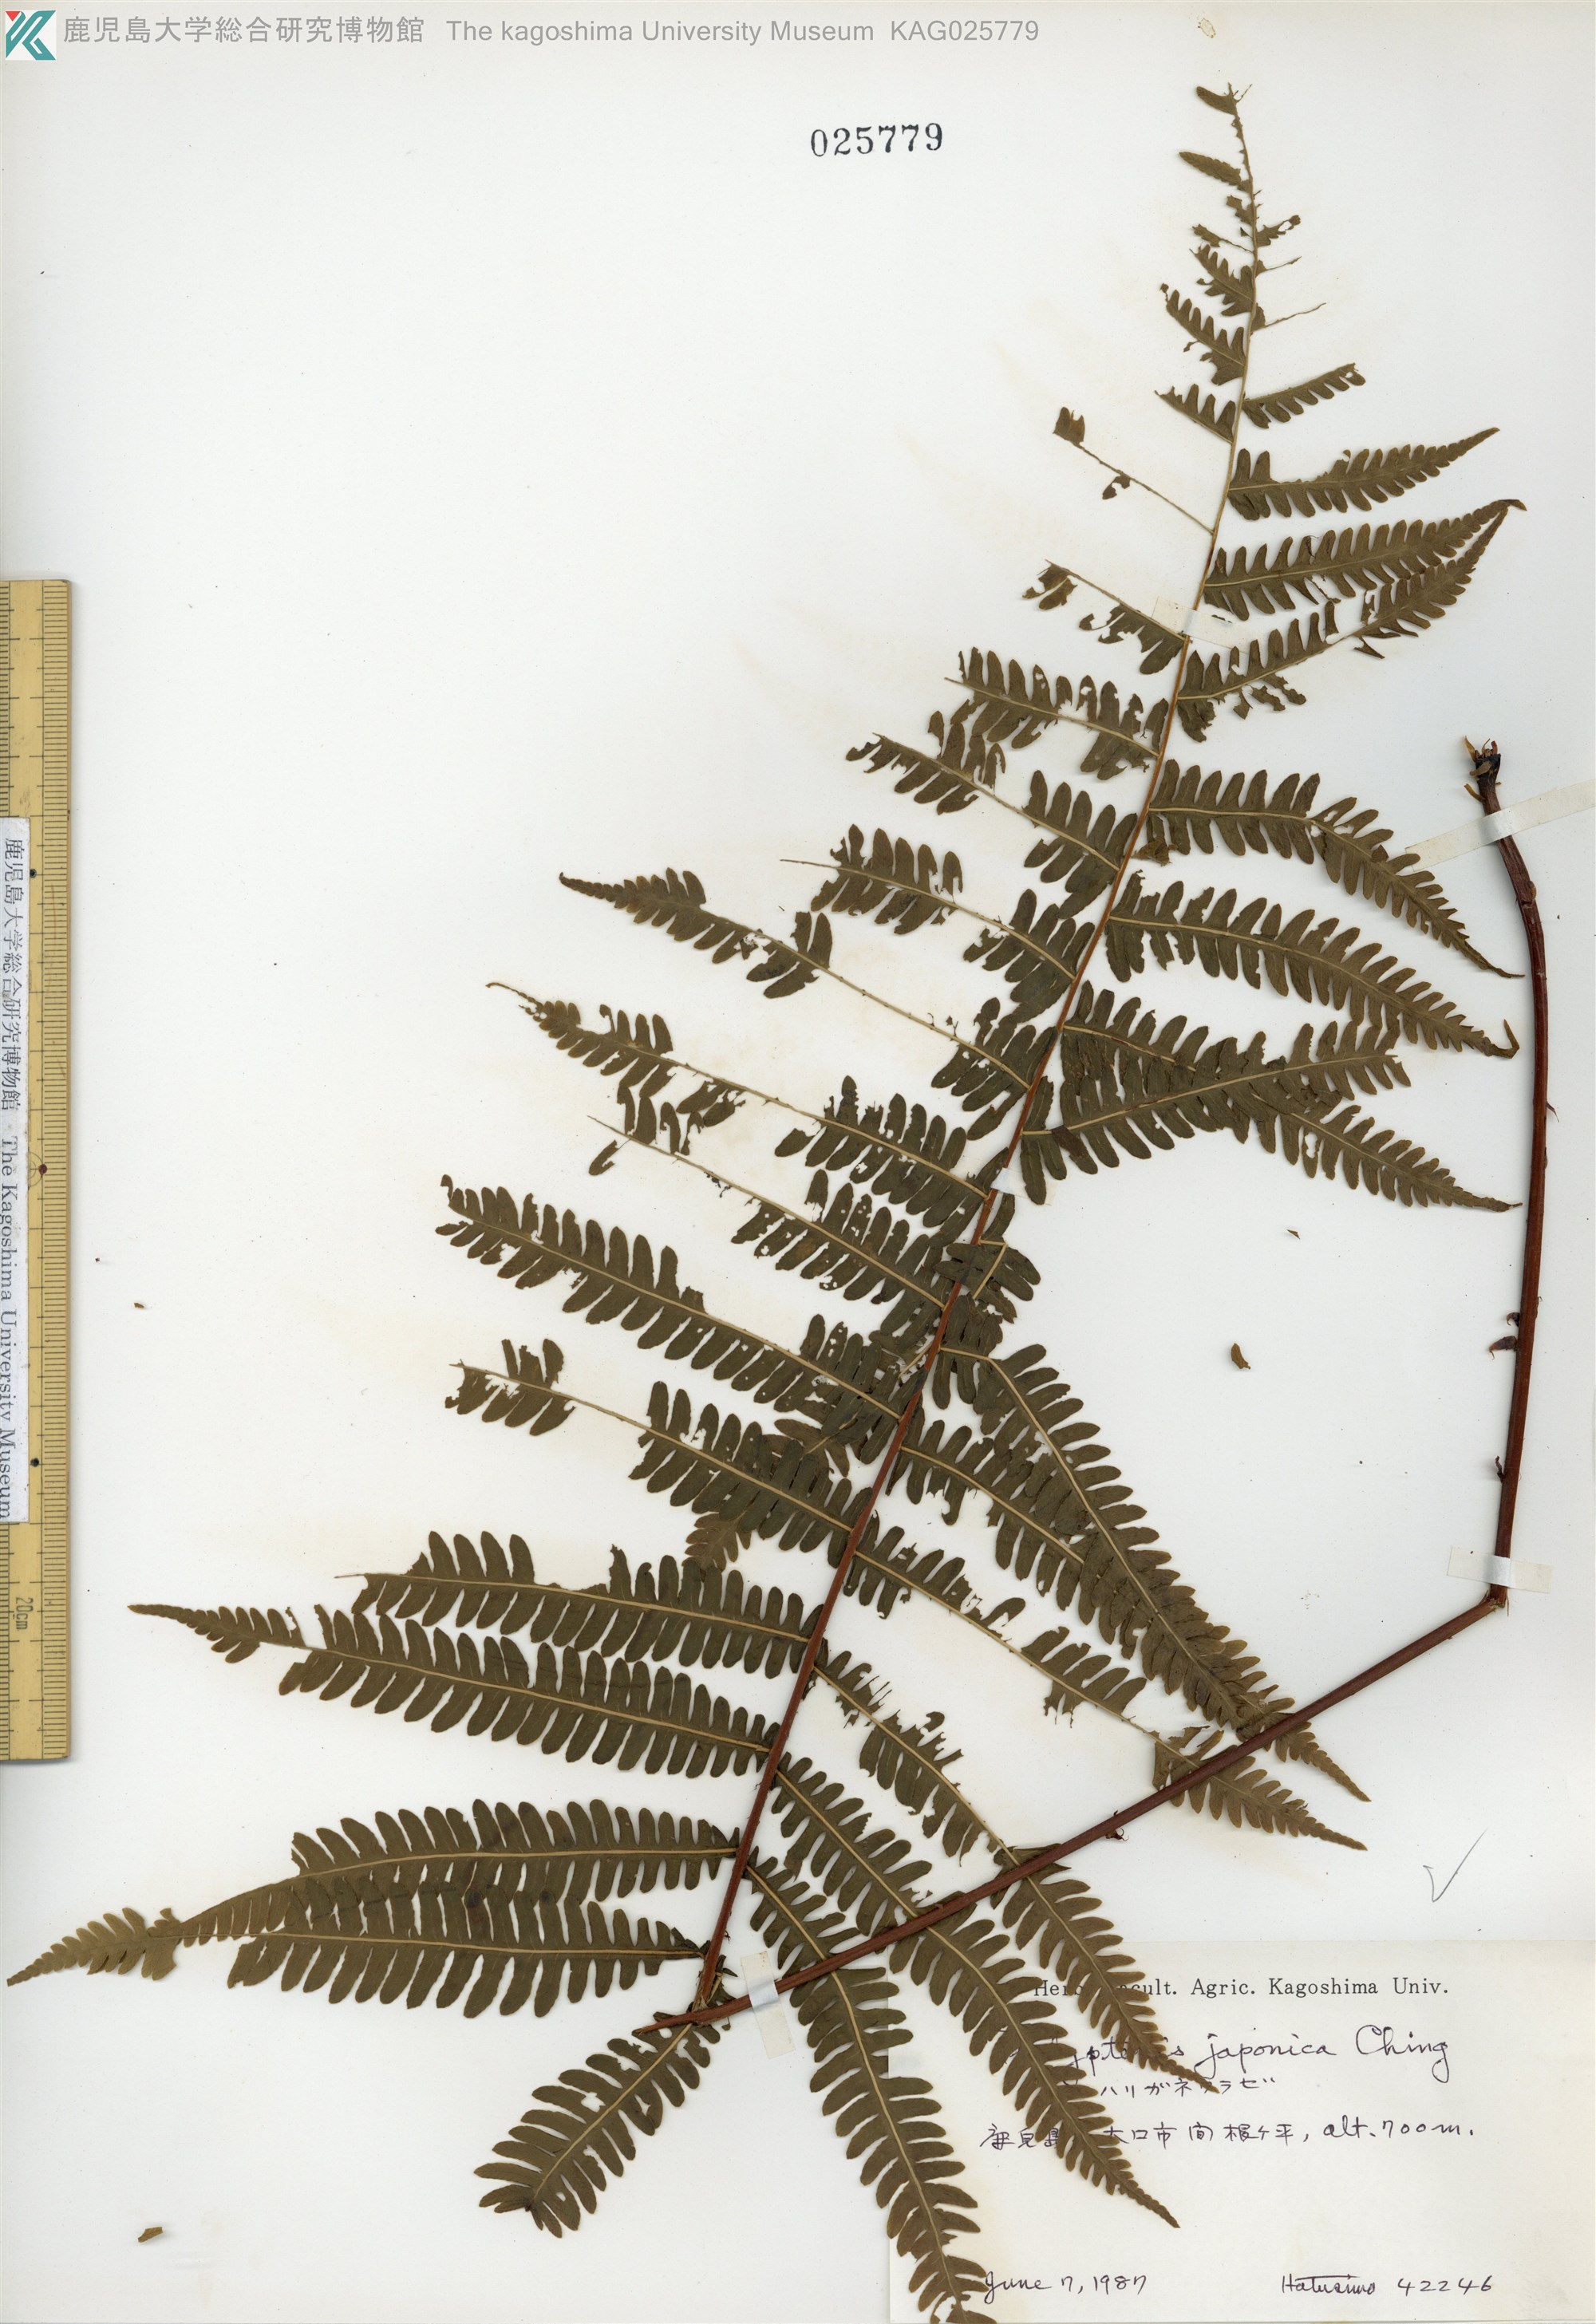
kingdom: Plantae
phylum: Tracheophyta
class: Polypodiopsida
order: Polypodiales
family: Thelypteridaceae
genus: Coryphopteris
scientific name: Coryphopteris japonica
